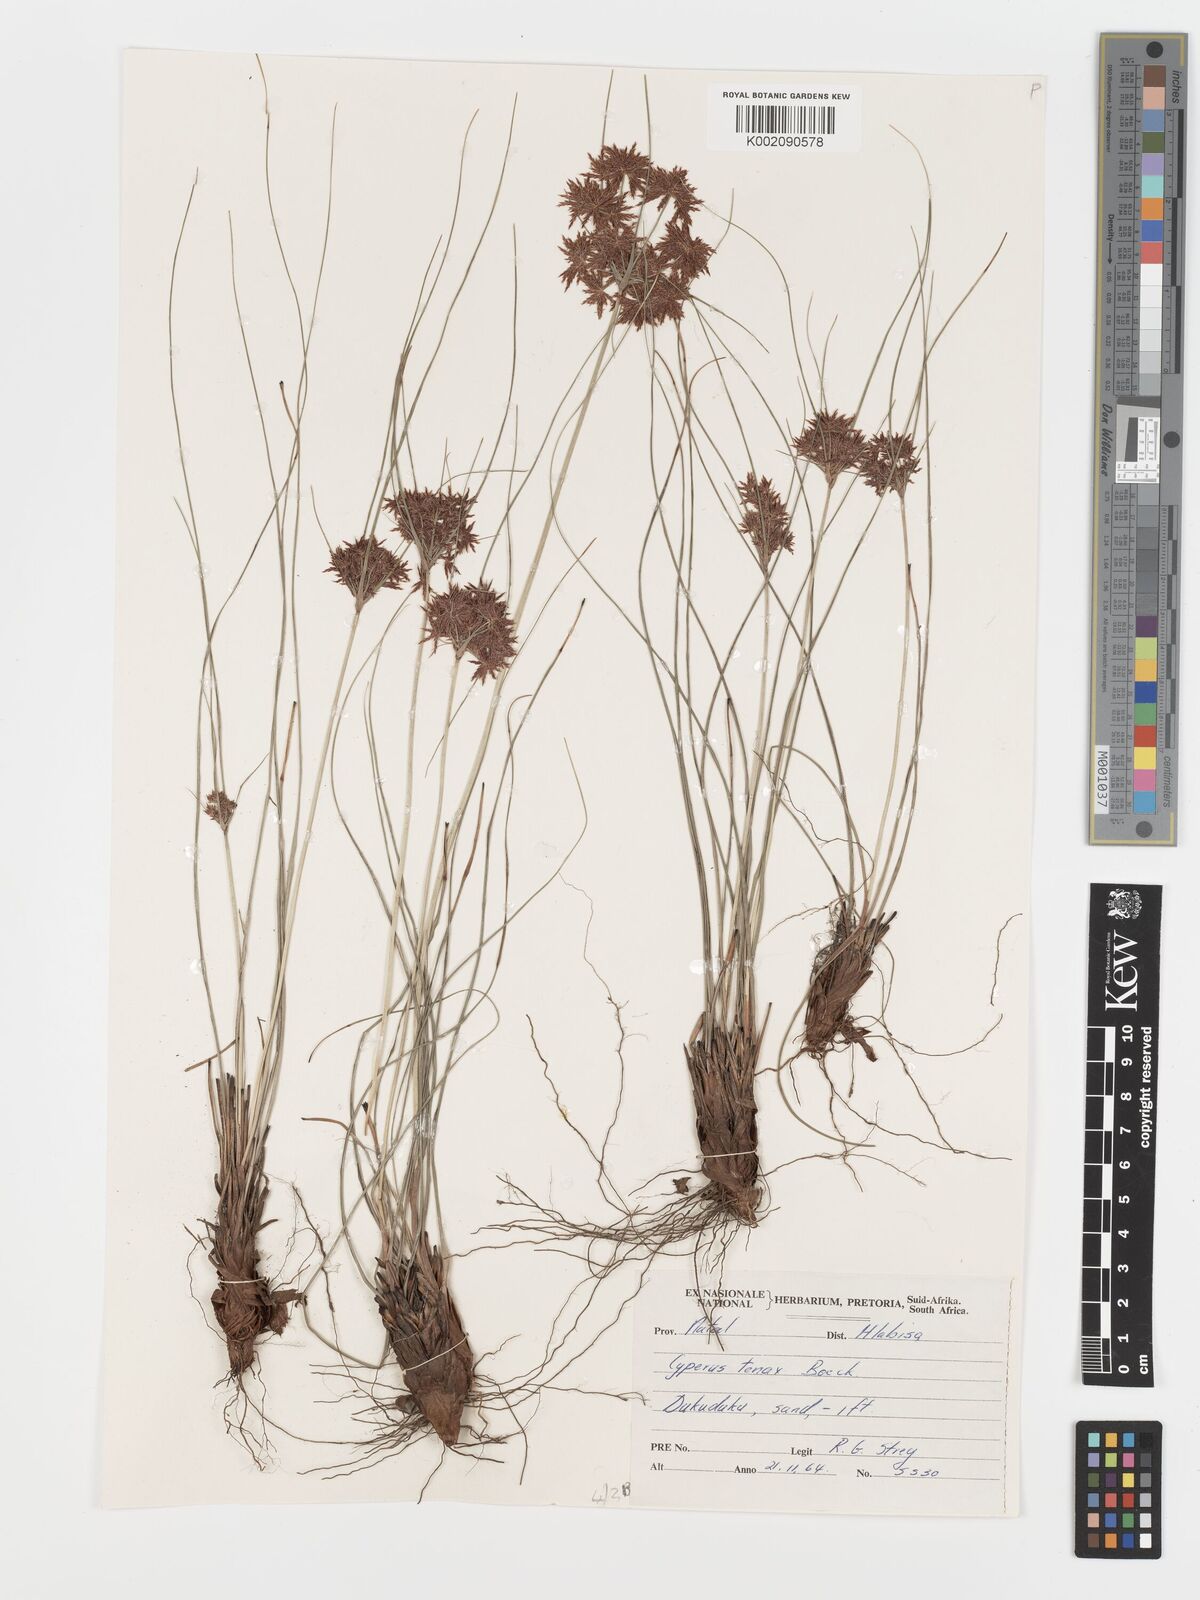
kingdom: Plantae
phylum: Tracheophyta
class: Liliopsida
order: Poales
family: Cyperaceae
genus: Cyperus
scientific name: Cyperus tenax
